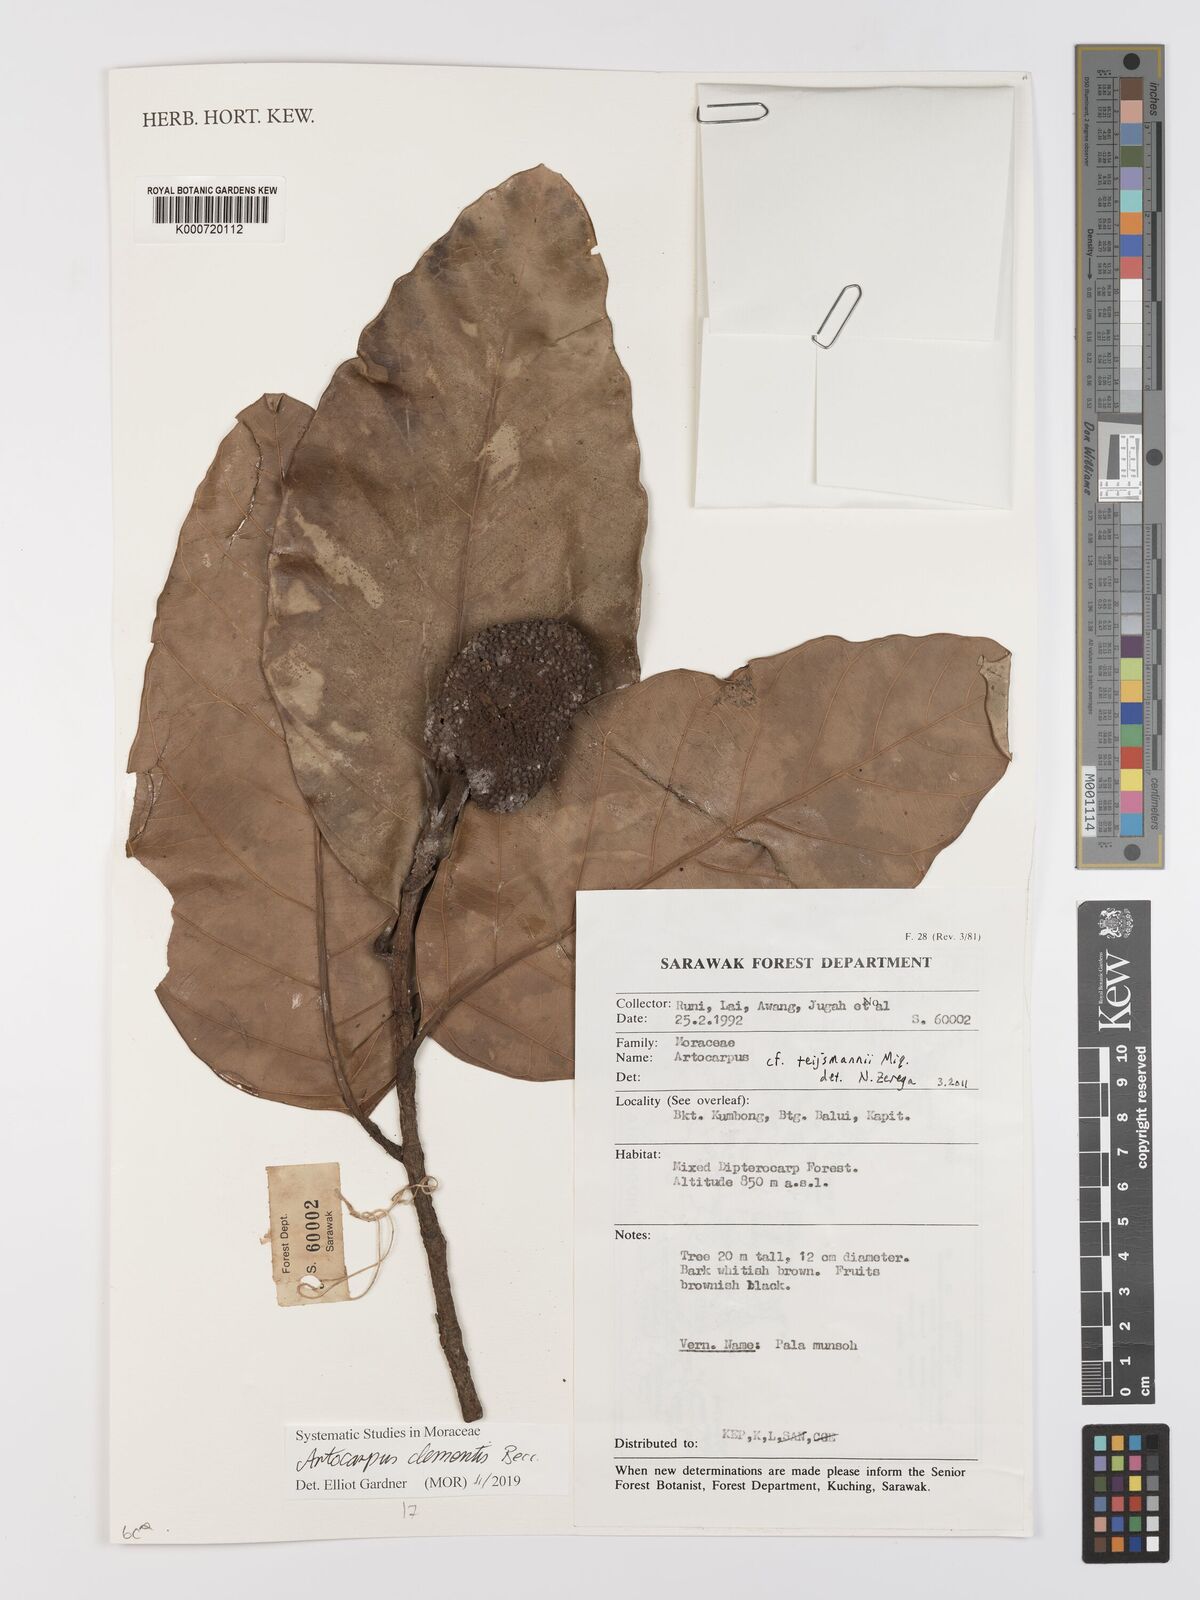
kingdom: Plantae
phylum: Tracheophyta
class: Magnoliopsida
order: Rosales
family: Moraceae
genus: Artocarpus
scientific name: Artocarpus
